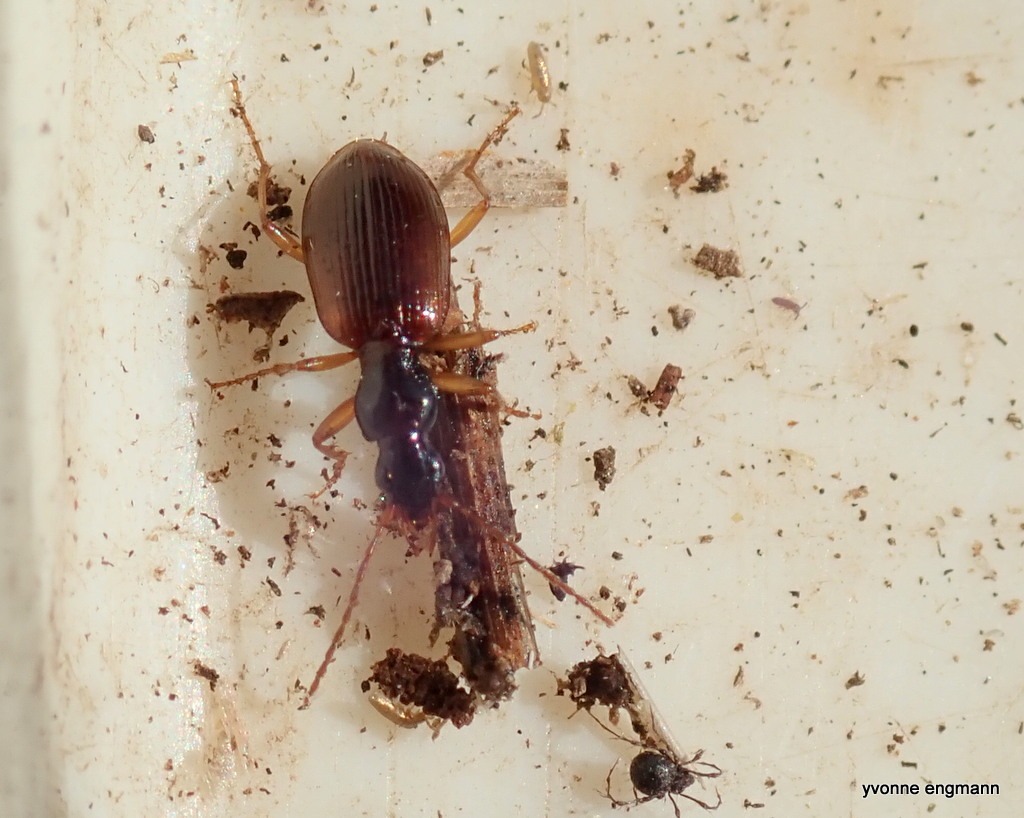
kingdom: Animalia
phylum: Arthropoda
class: Insecta
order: Coleoptera
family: Carabidae
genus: Oxypselaphus
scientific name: Oxypselaphus obscurus
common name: Rødbrun kvikløber
